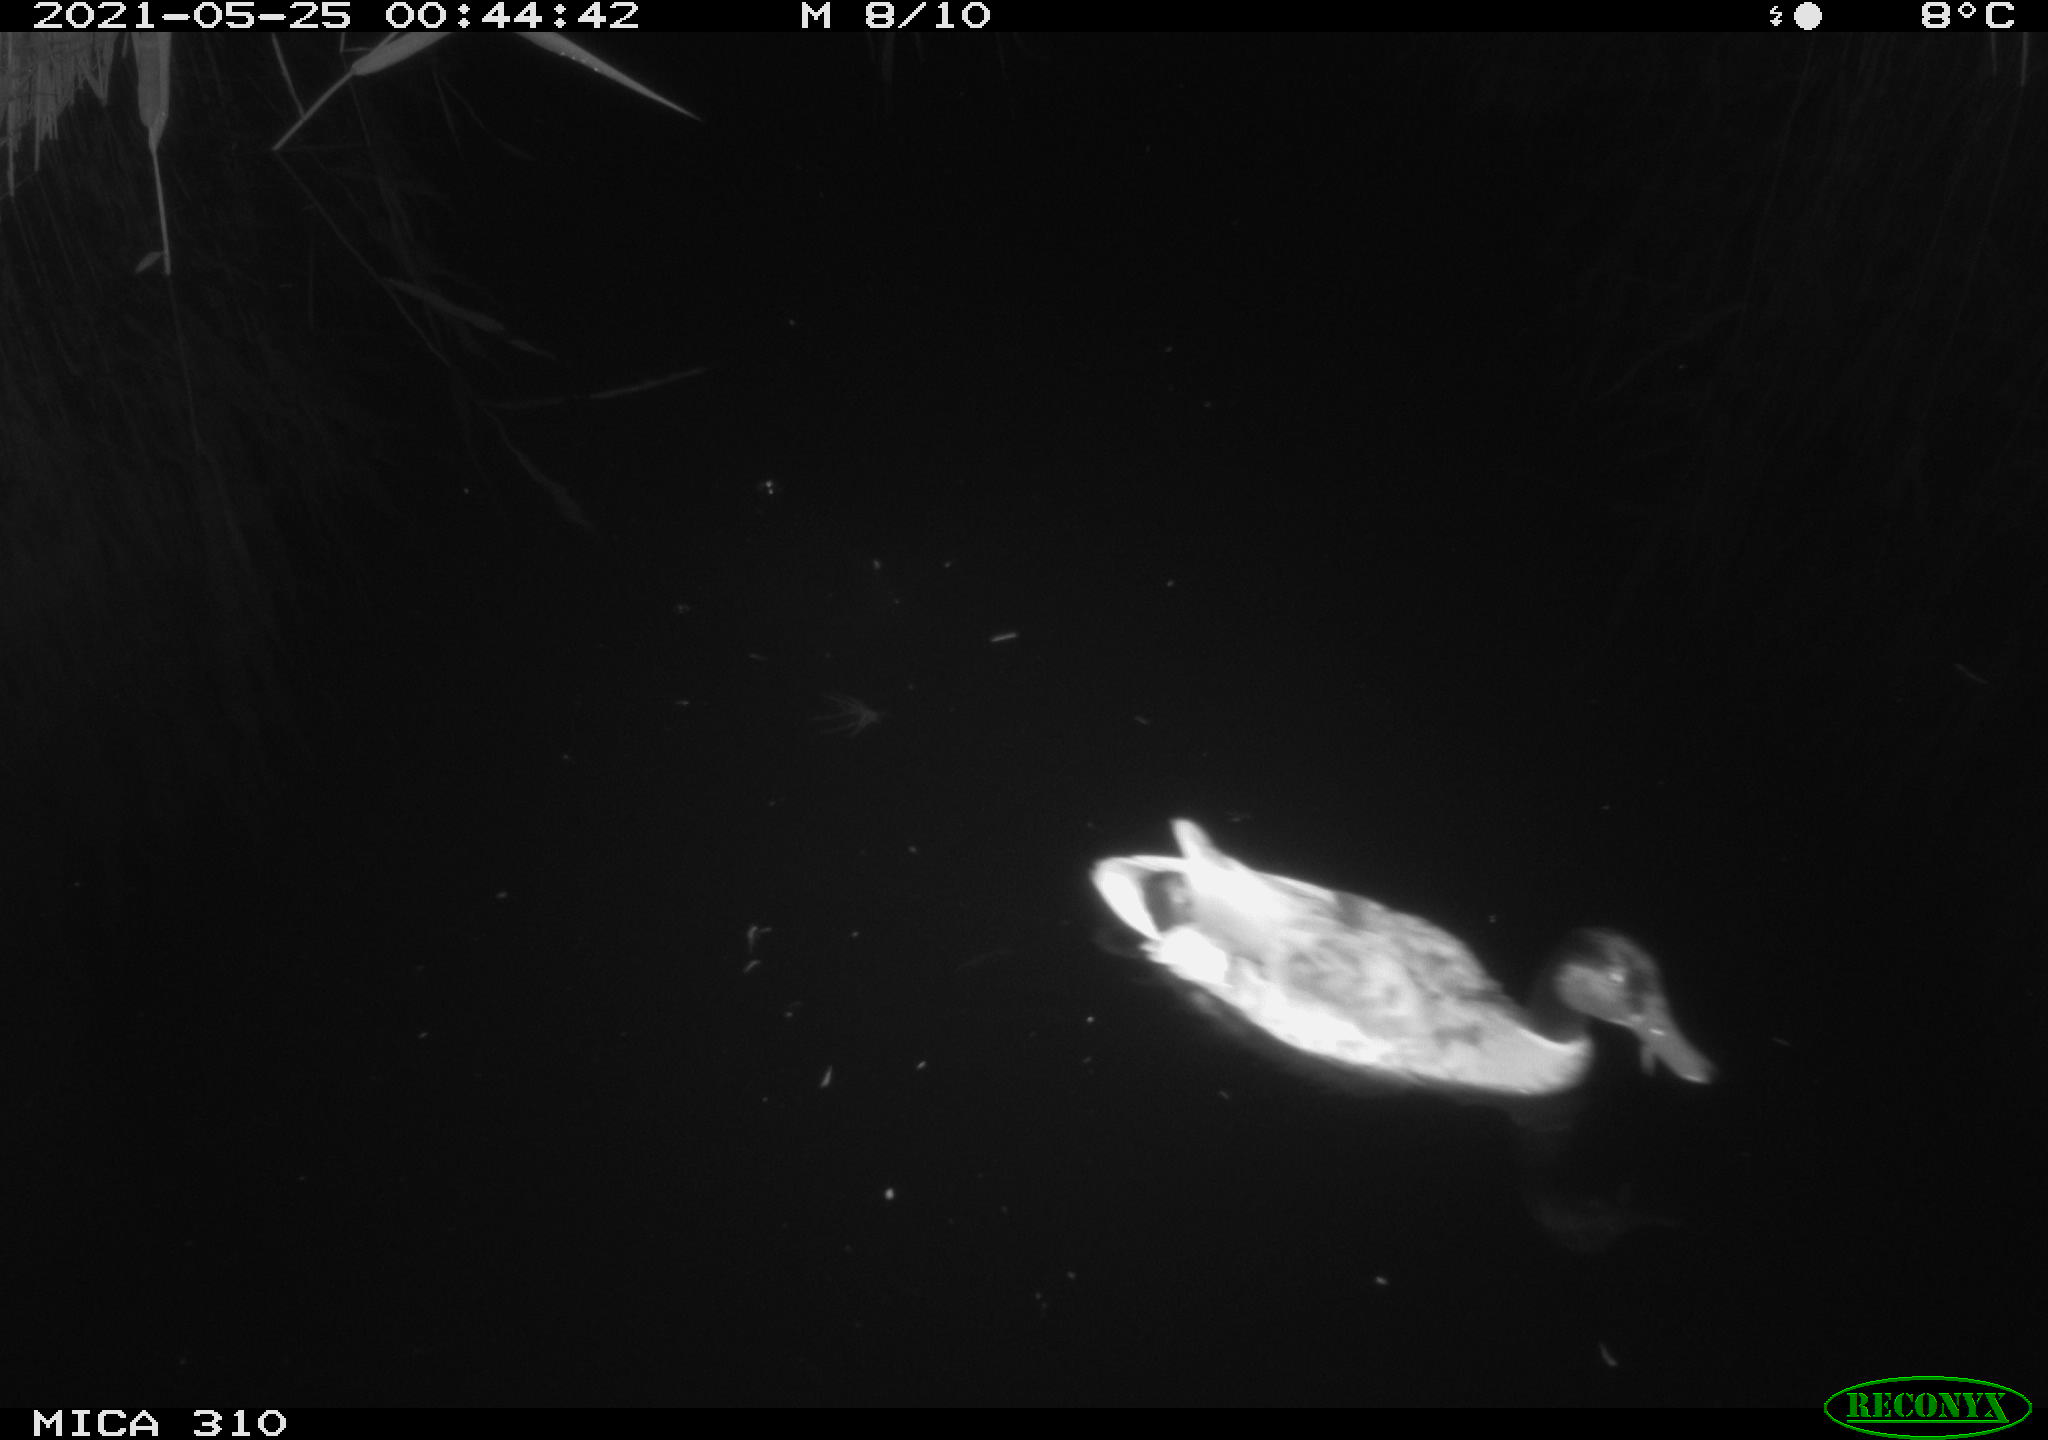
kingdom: Animalia
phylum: Chordata
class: Aves
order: Anseriformes
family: Anatidae
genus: Anas
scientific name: Anas platyrhynchos
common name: Mallard
